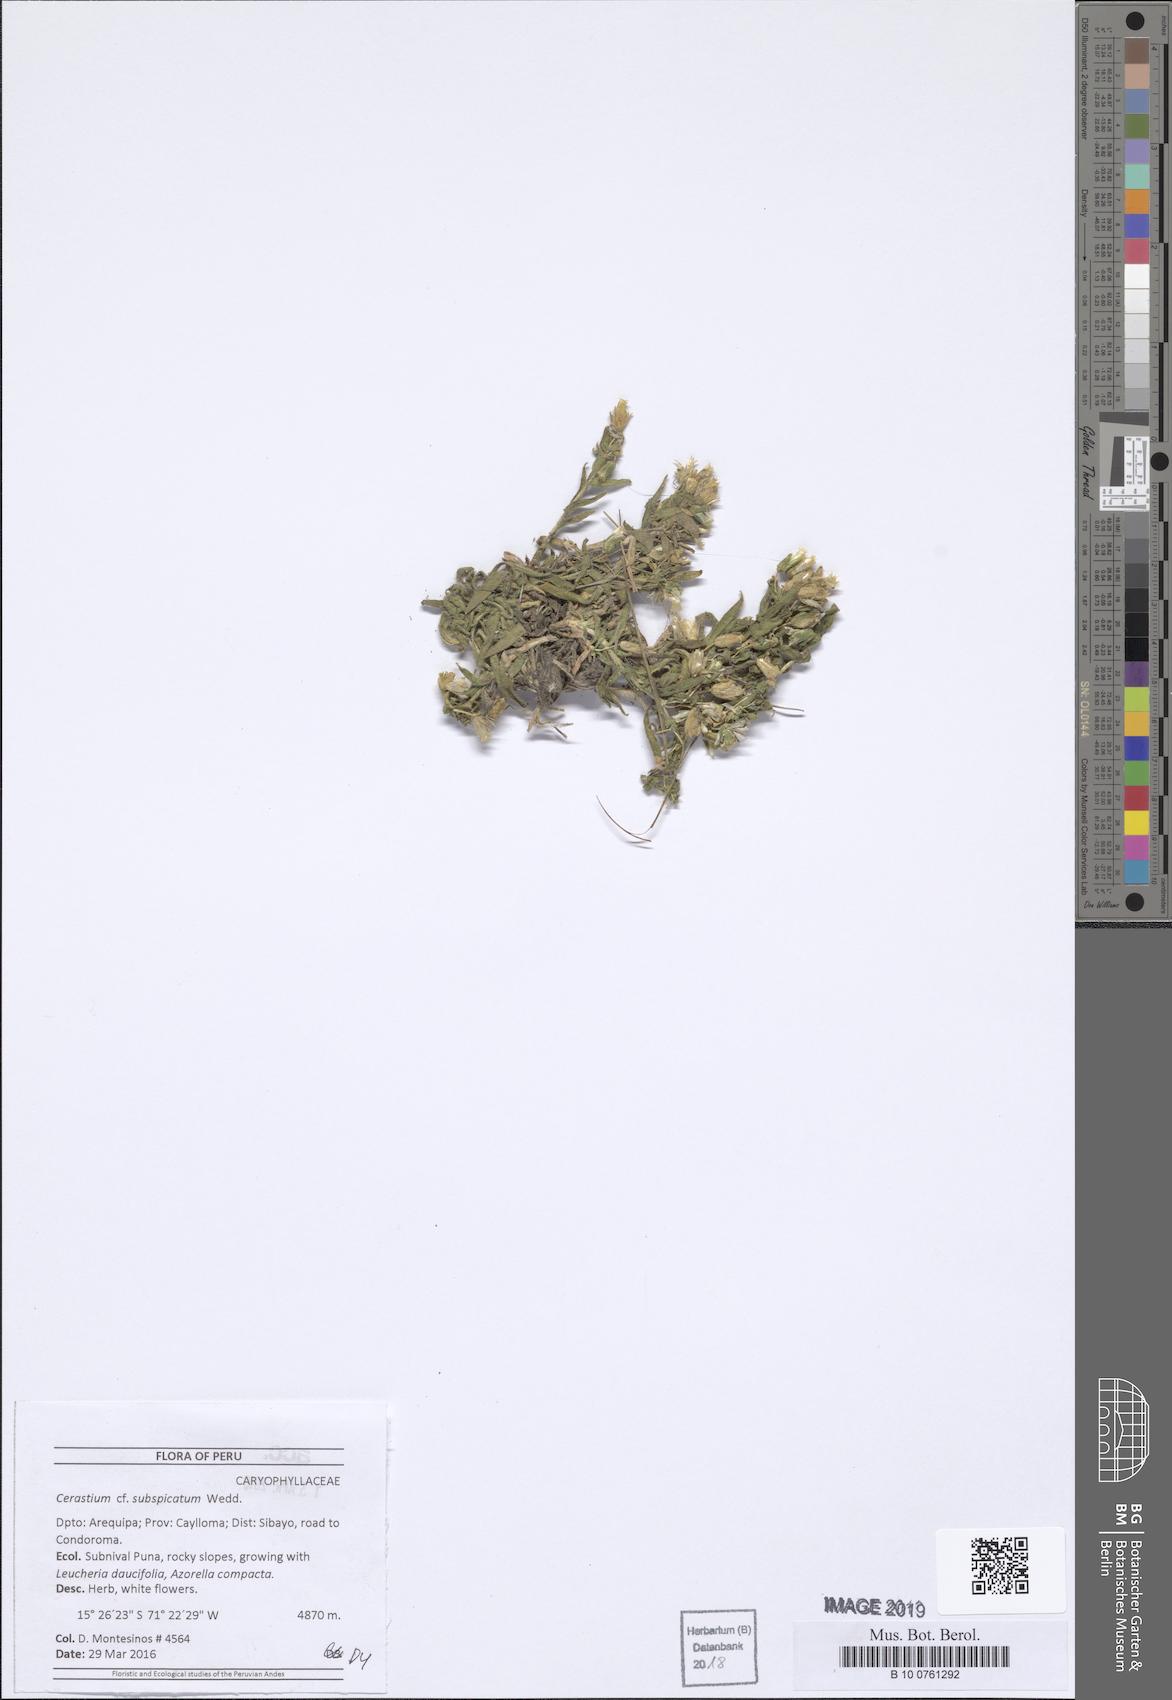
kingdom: Plantae
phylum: Tracheophyta
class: Magnoliopsida
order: Caryophyllales
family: Caryophyllaceae
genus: Cerastium
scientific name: Cerastium subspicatum
